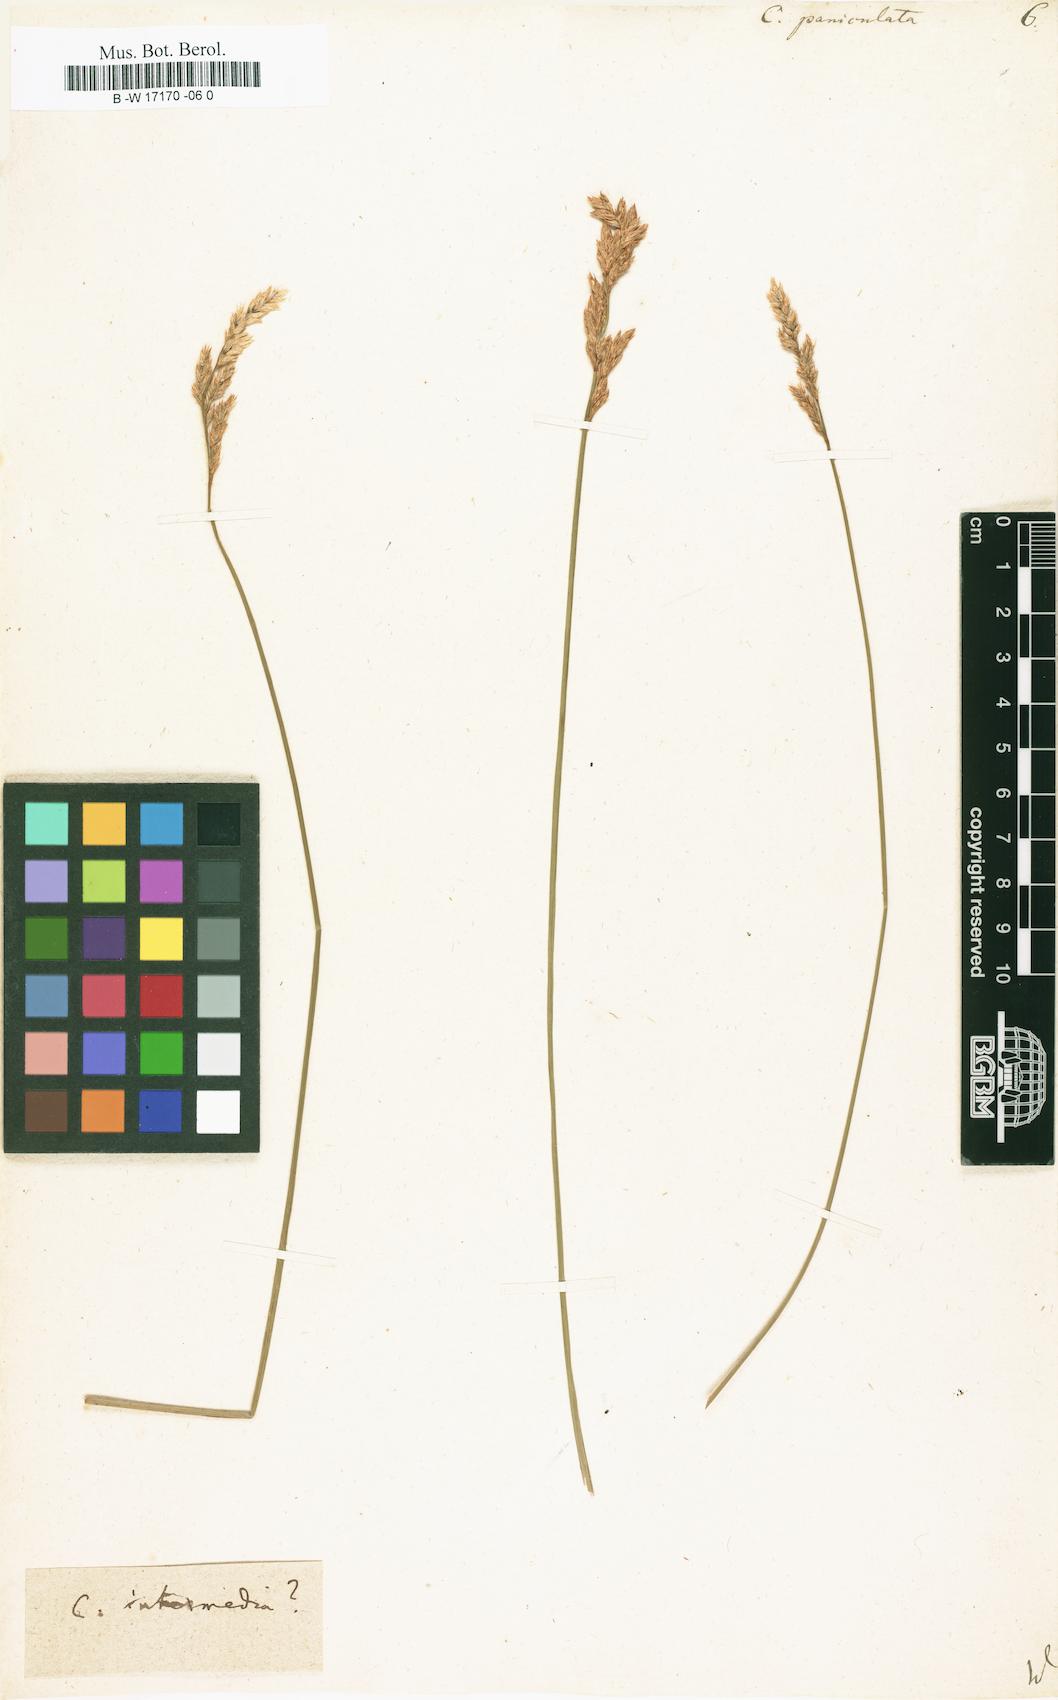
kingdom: Plantae
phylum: Tracheophyta
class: Liliopsida
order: Poales
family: Cyperaceae
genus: Carex
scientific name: Carex paniculata
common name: Greater tussock-sedge
